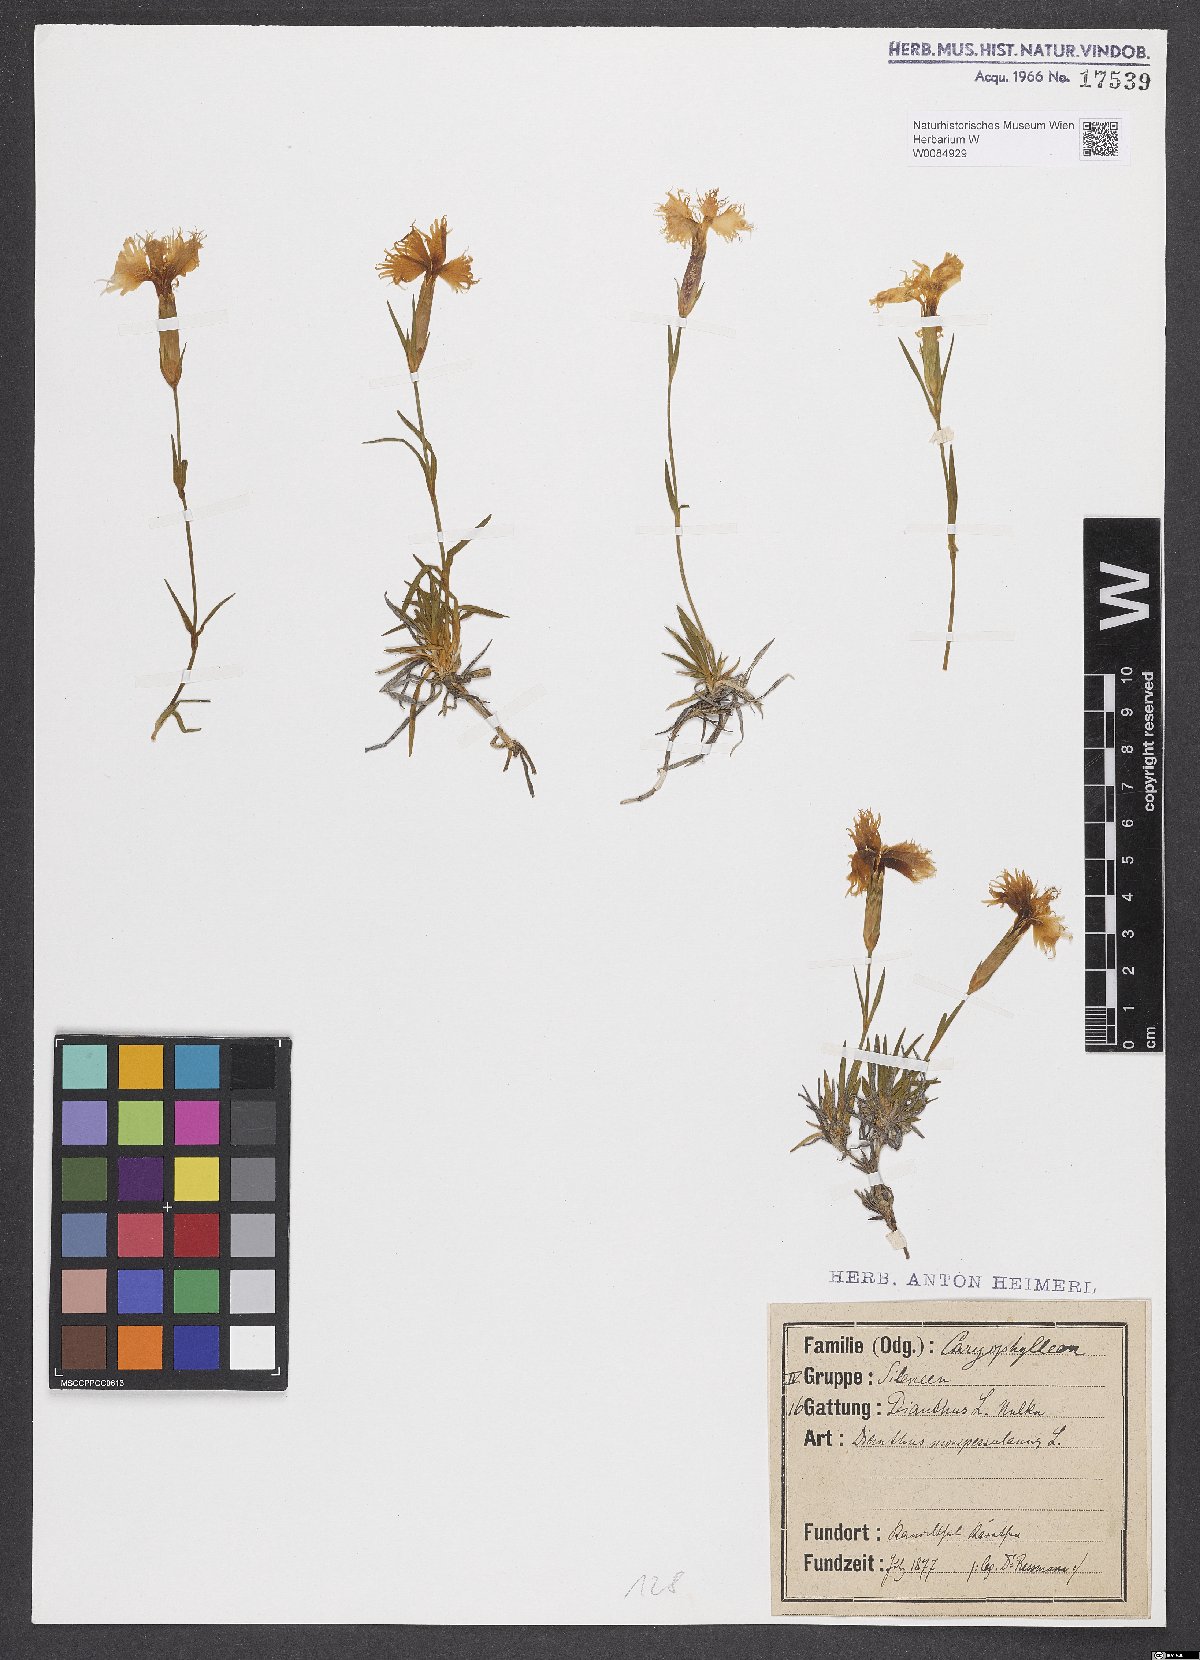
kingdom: Plantae
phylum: Tracheophyta
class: Magnoliopsida
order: Caryophyllales
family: Caryophyllaceae
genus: Dianthus
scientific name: Dianthus hyssopifolius
